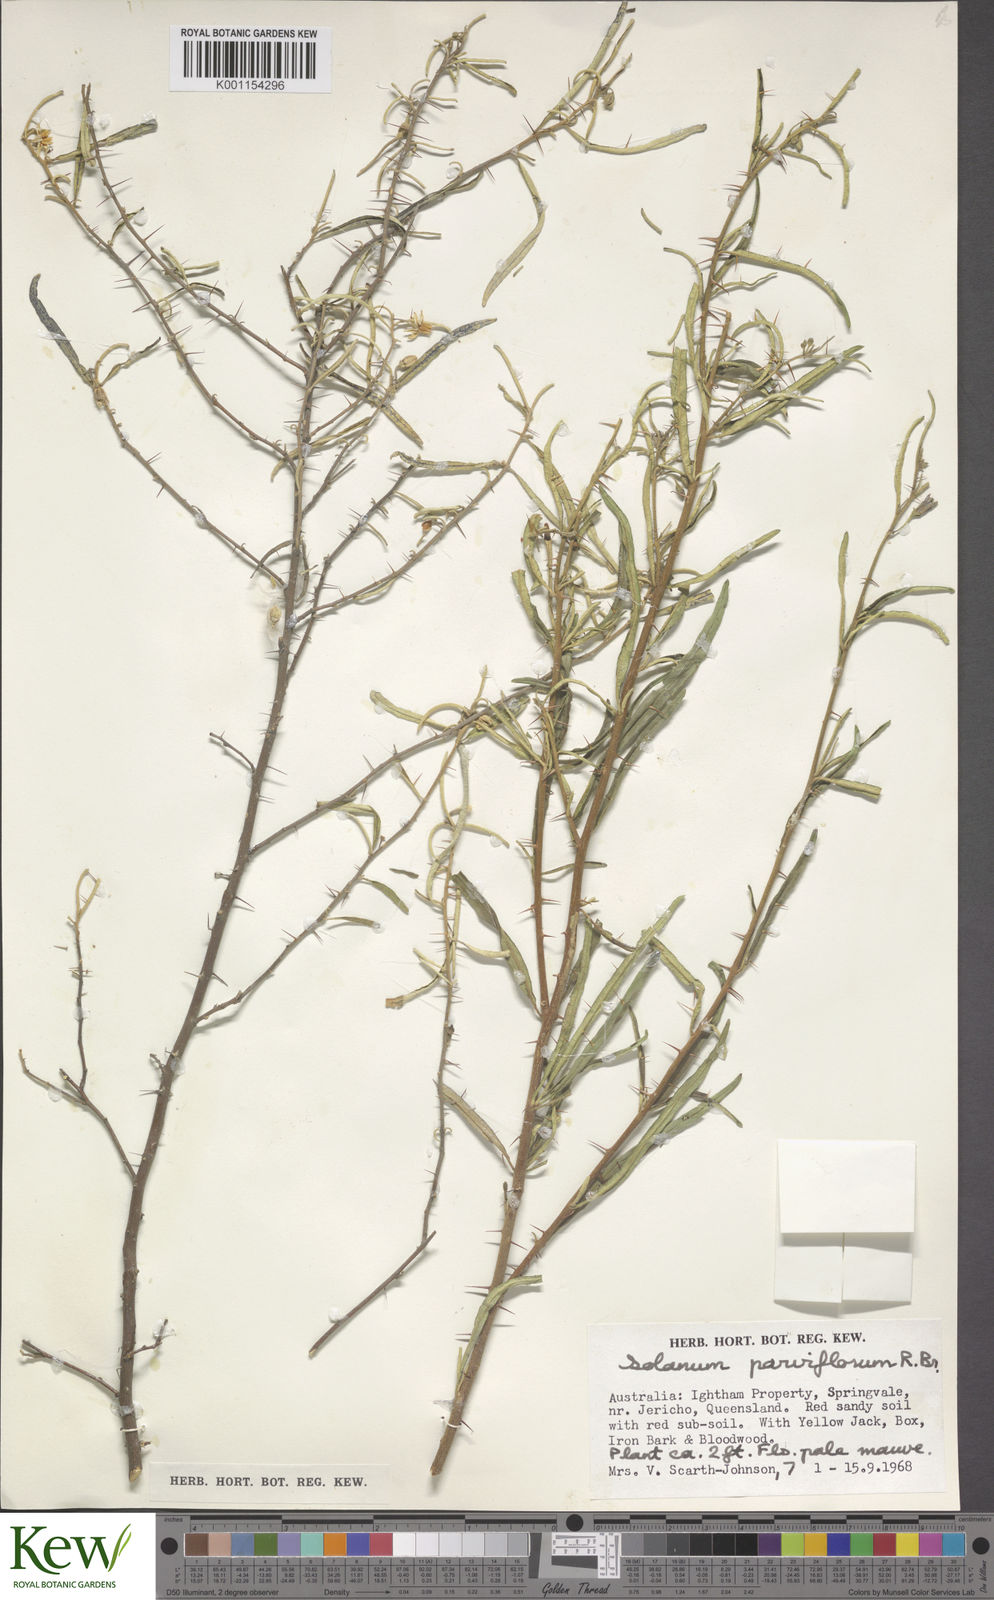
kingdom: Plantae
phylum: Tracheophyta
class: Magnoliopsida
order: Solanales
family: Solanaceae
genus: Solanum
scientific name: Solanum parvifolium
